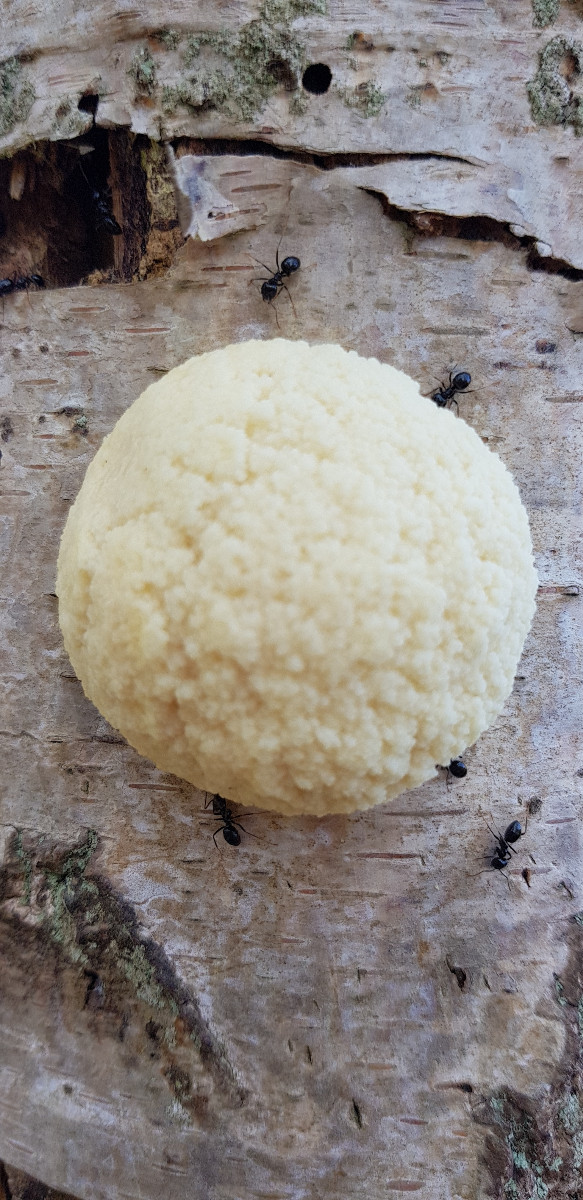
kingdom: Protozoa
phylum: Mycetozoa
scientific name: Mycetozoa
